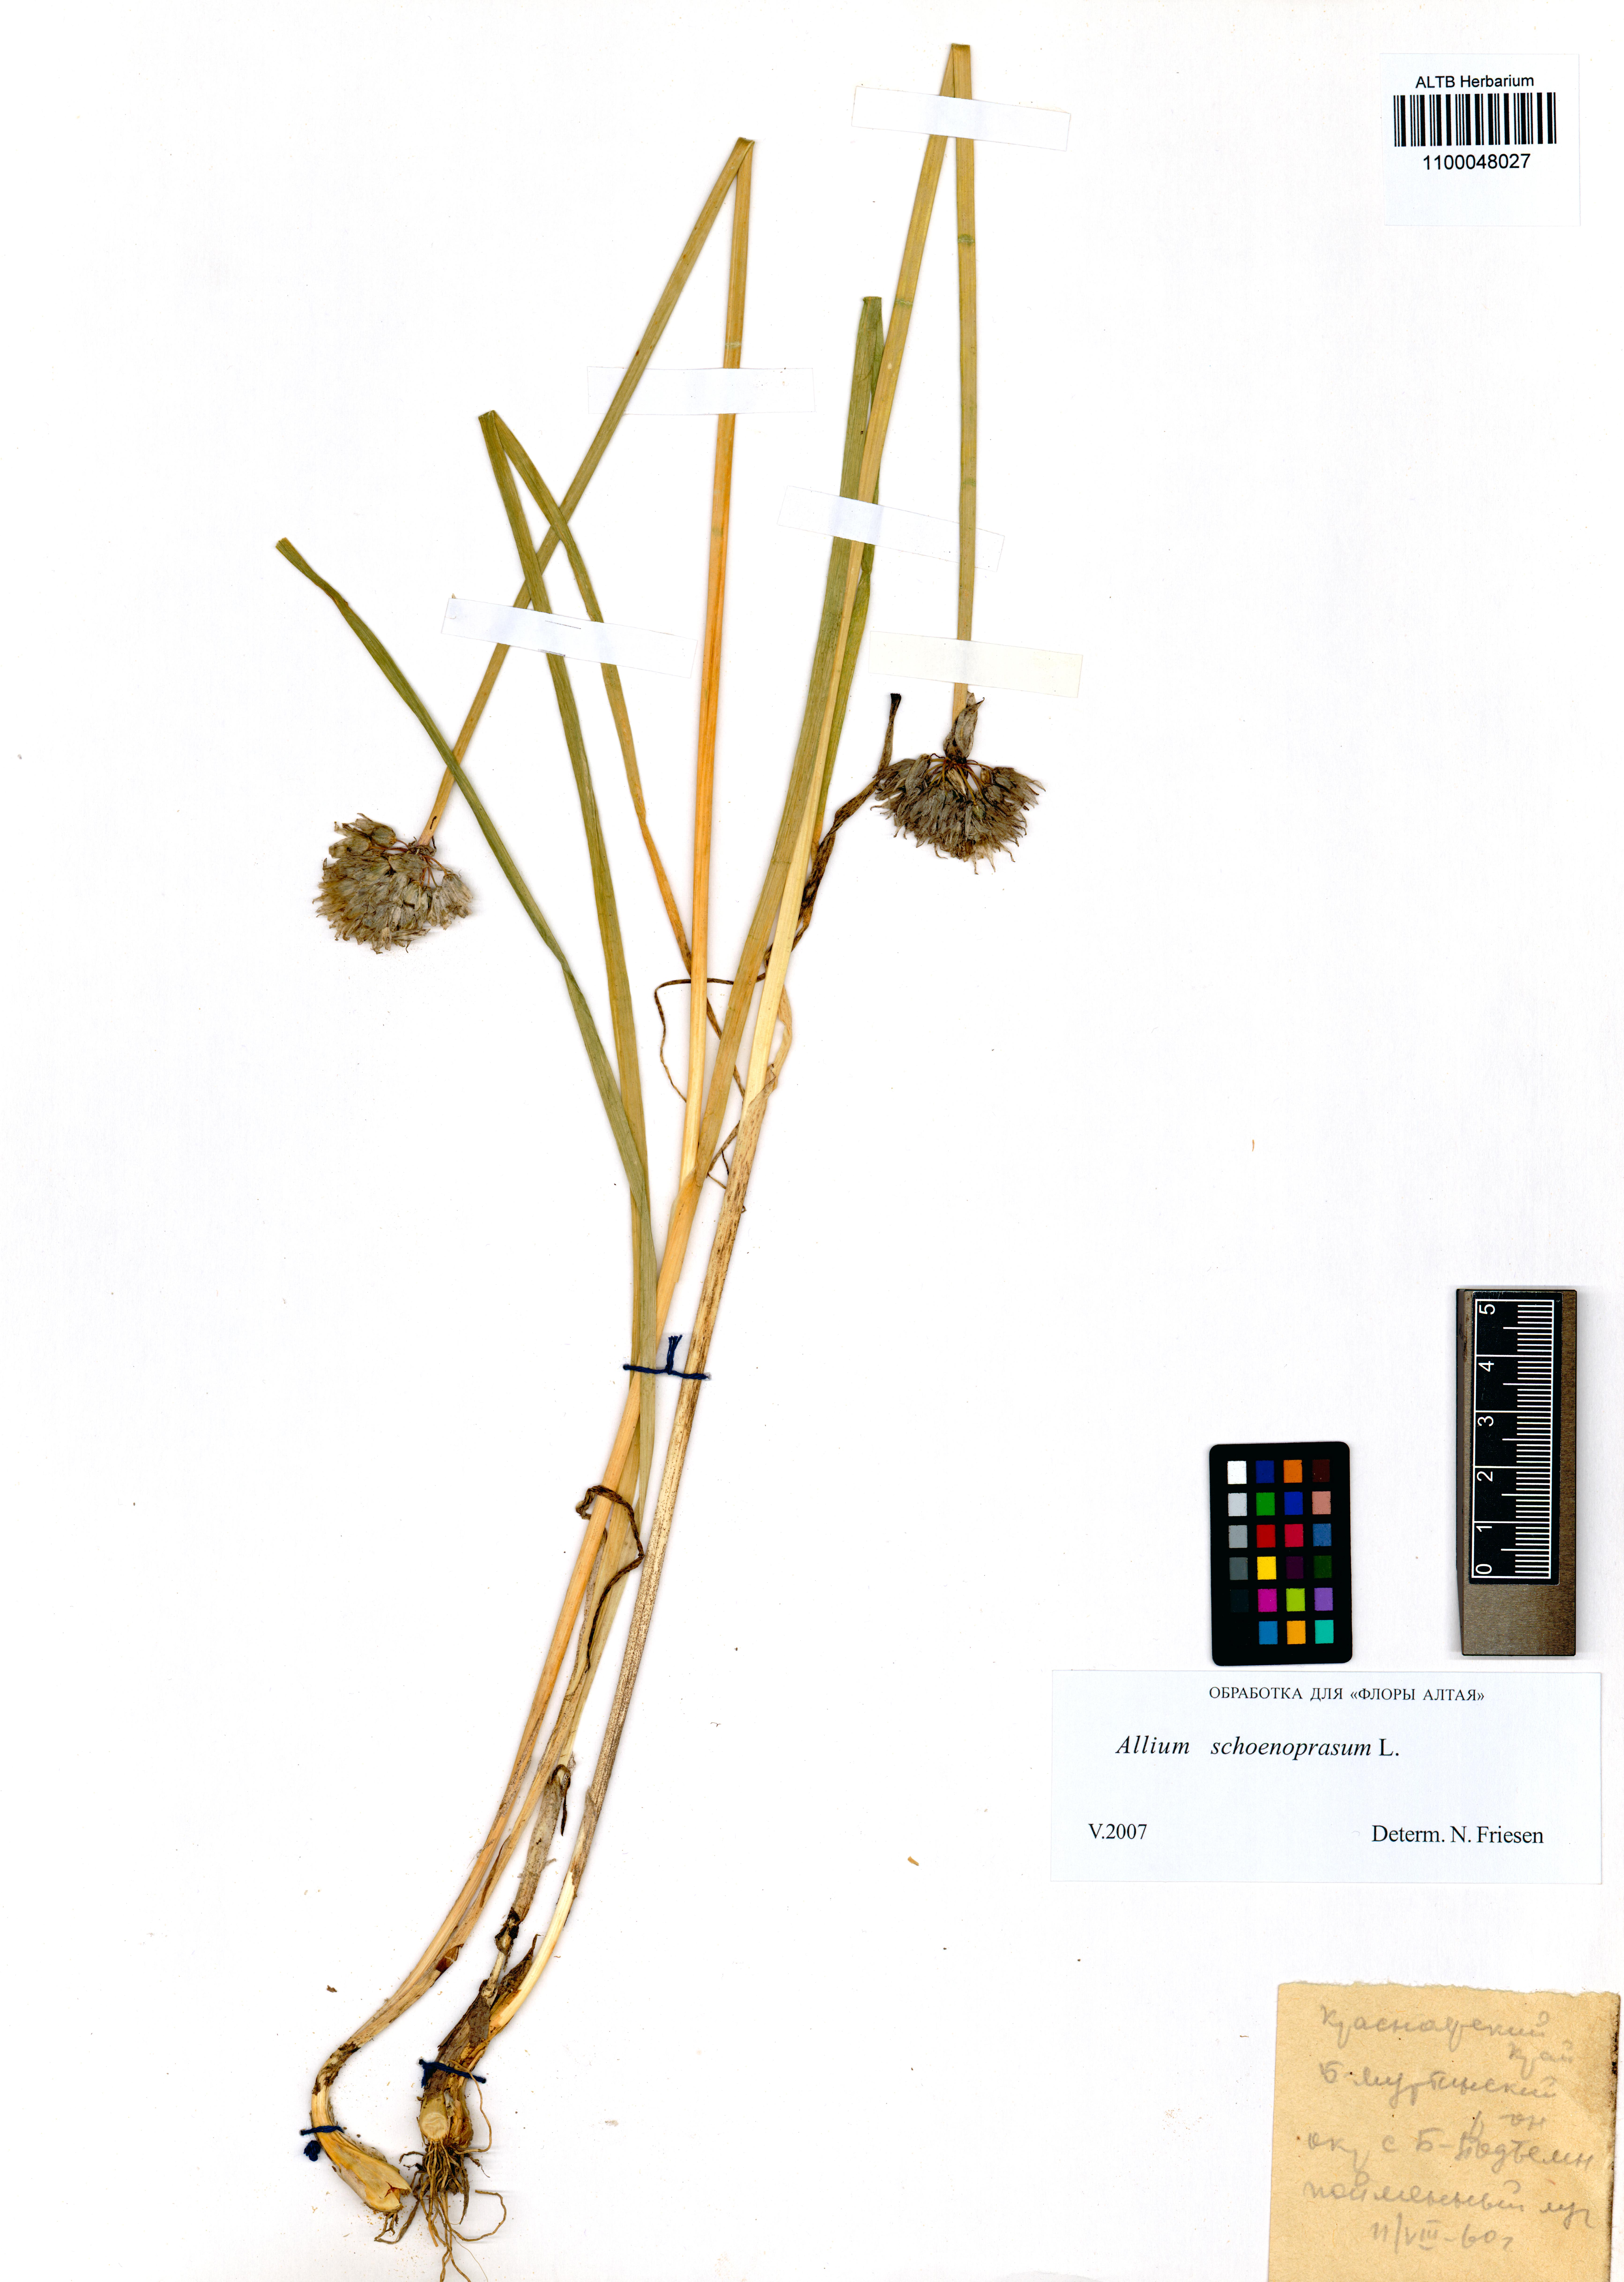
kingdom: Plantae
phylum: Tracheophyta
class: Liliopsida
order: Asparagales
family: Amaryllidaceae
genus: Allium
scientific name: Allium schoenoprasum
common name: Chives
